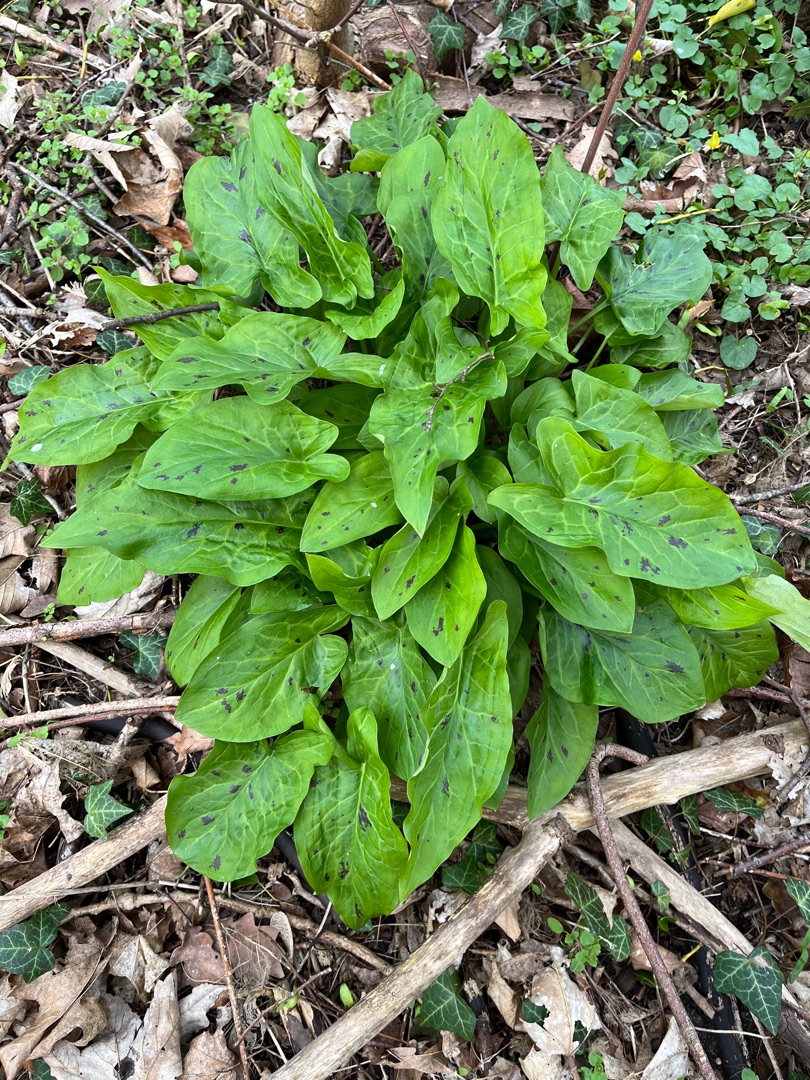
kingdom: Plantae
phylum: Tracheophyta
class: Liliopsida
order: Alismatales
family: Araceae
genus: Arum
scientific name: Arum maculatum
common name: Plettet arum
